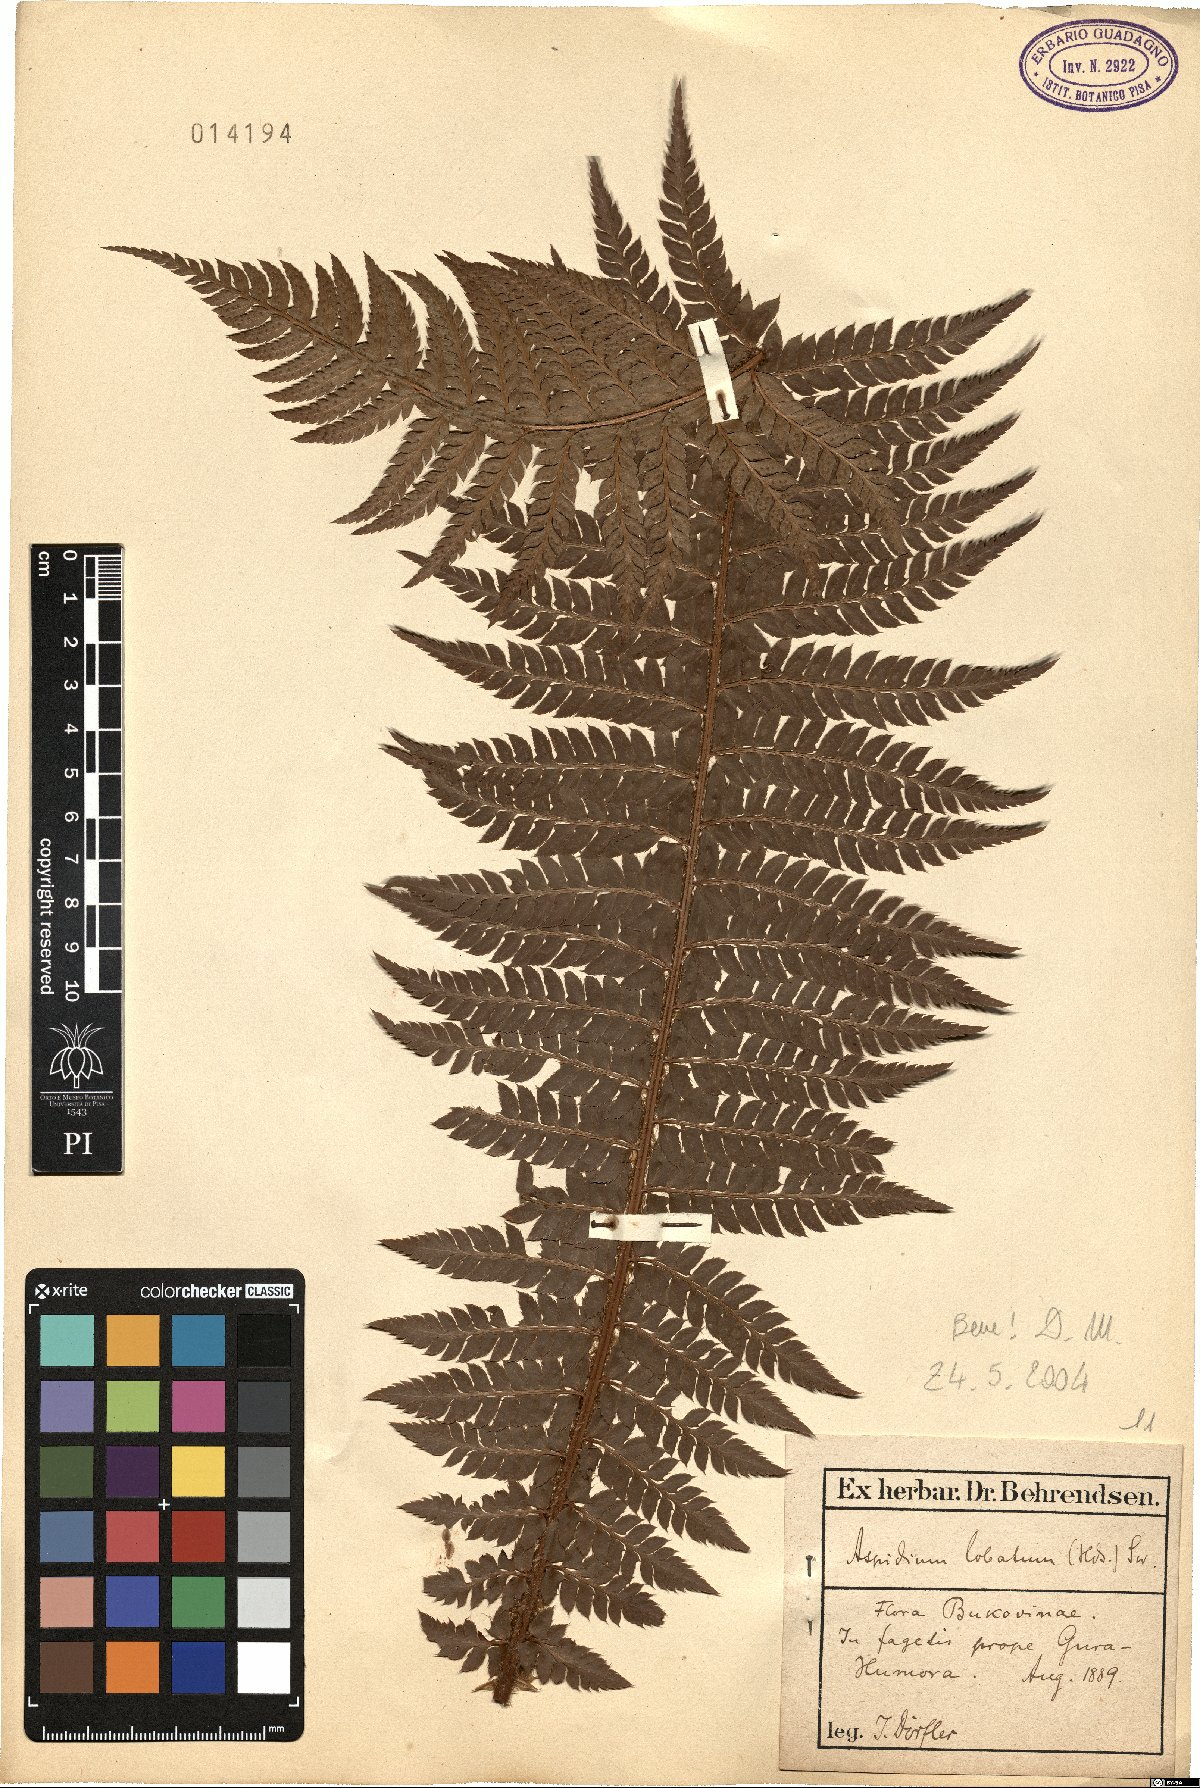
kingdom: Plantae
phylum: Tracheophyta
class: Polypodiopsida
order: Polypodiales
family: Dryopteridaceae
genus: Polystichum
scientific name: Polystichum aculeatum
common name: Hard shield-fern
